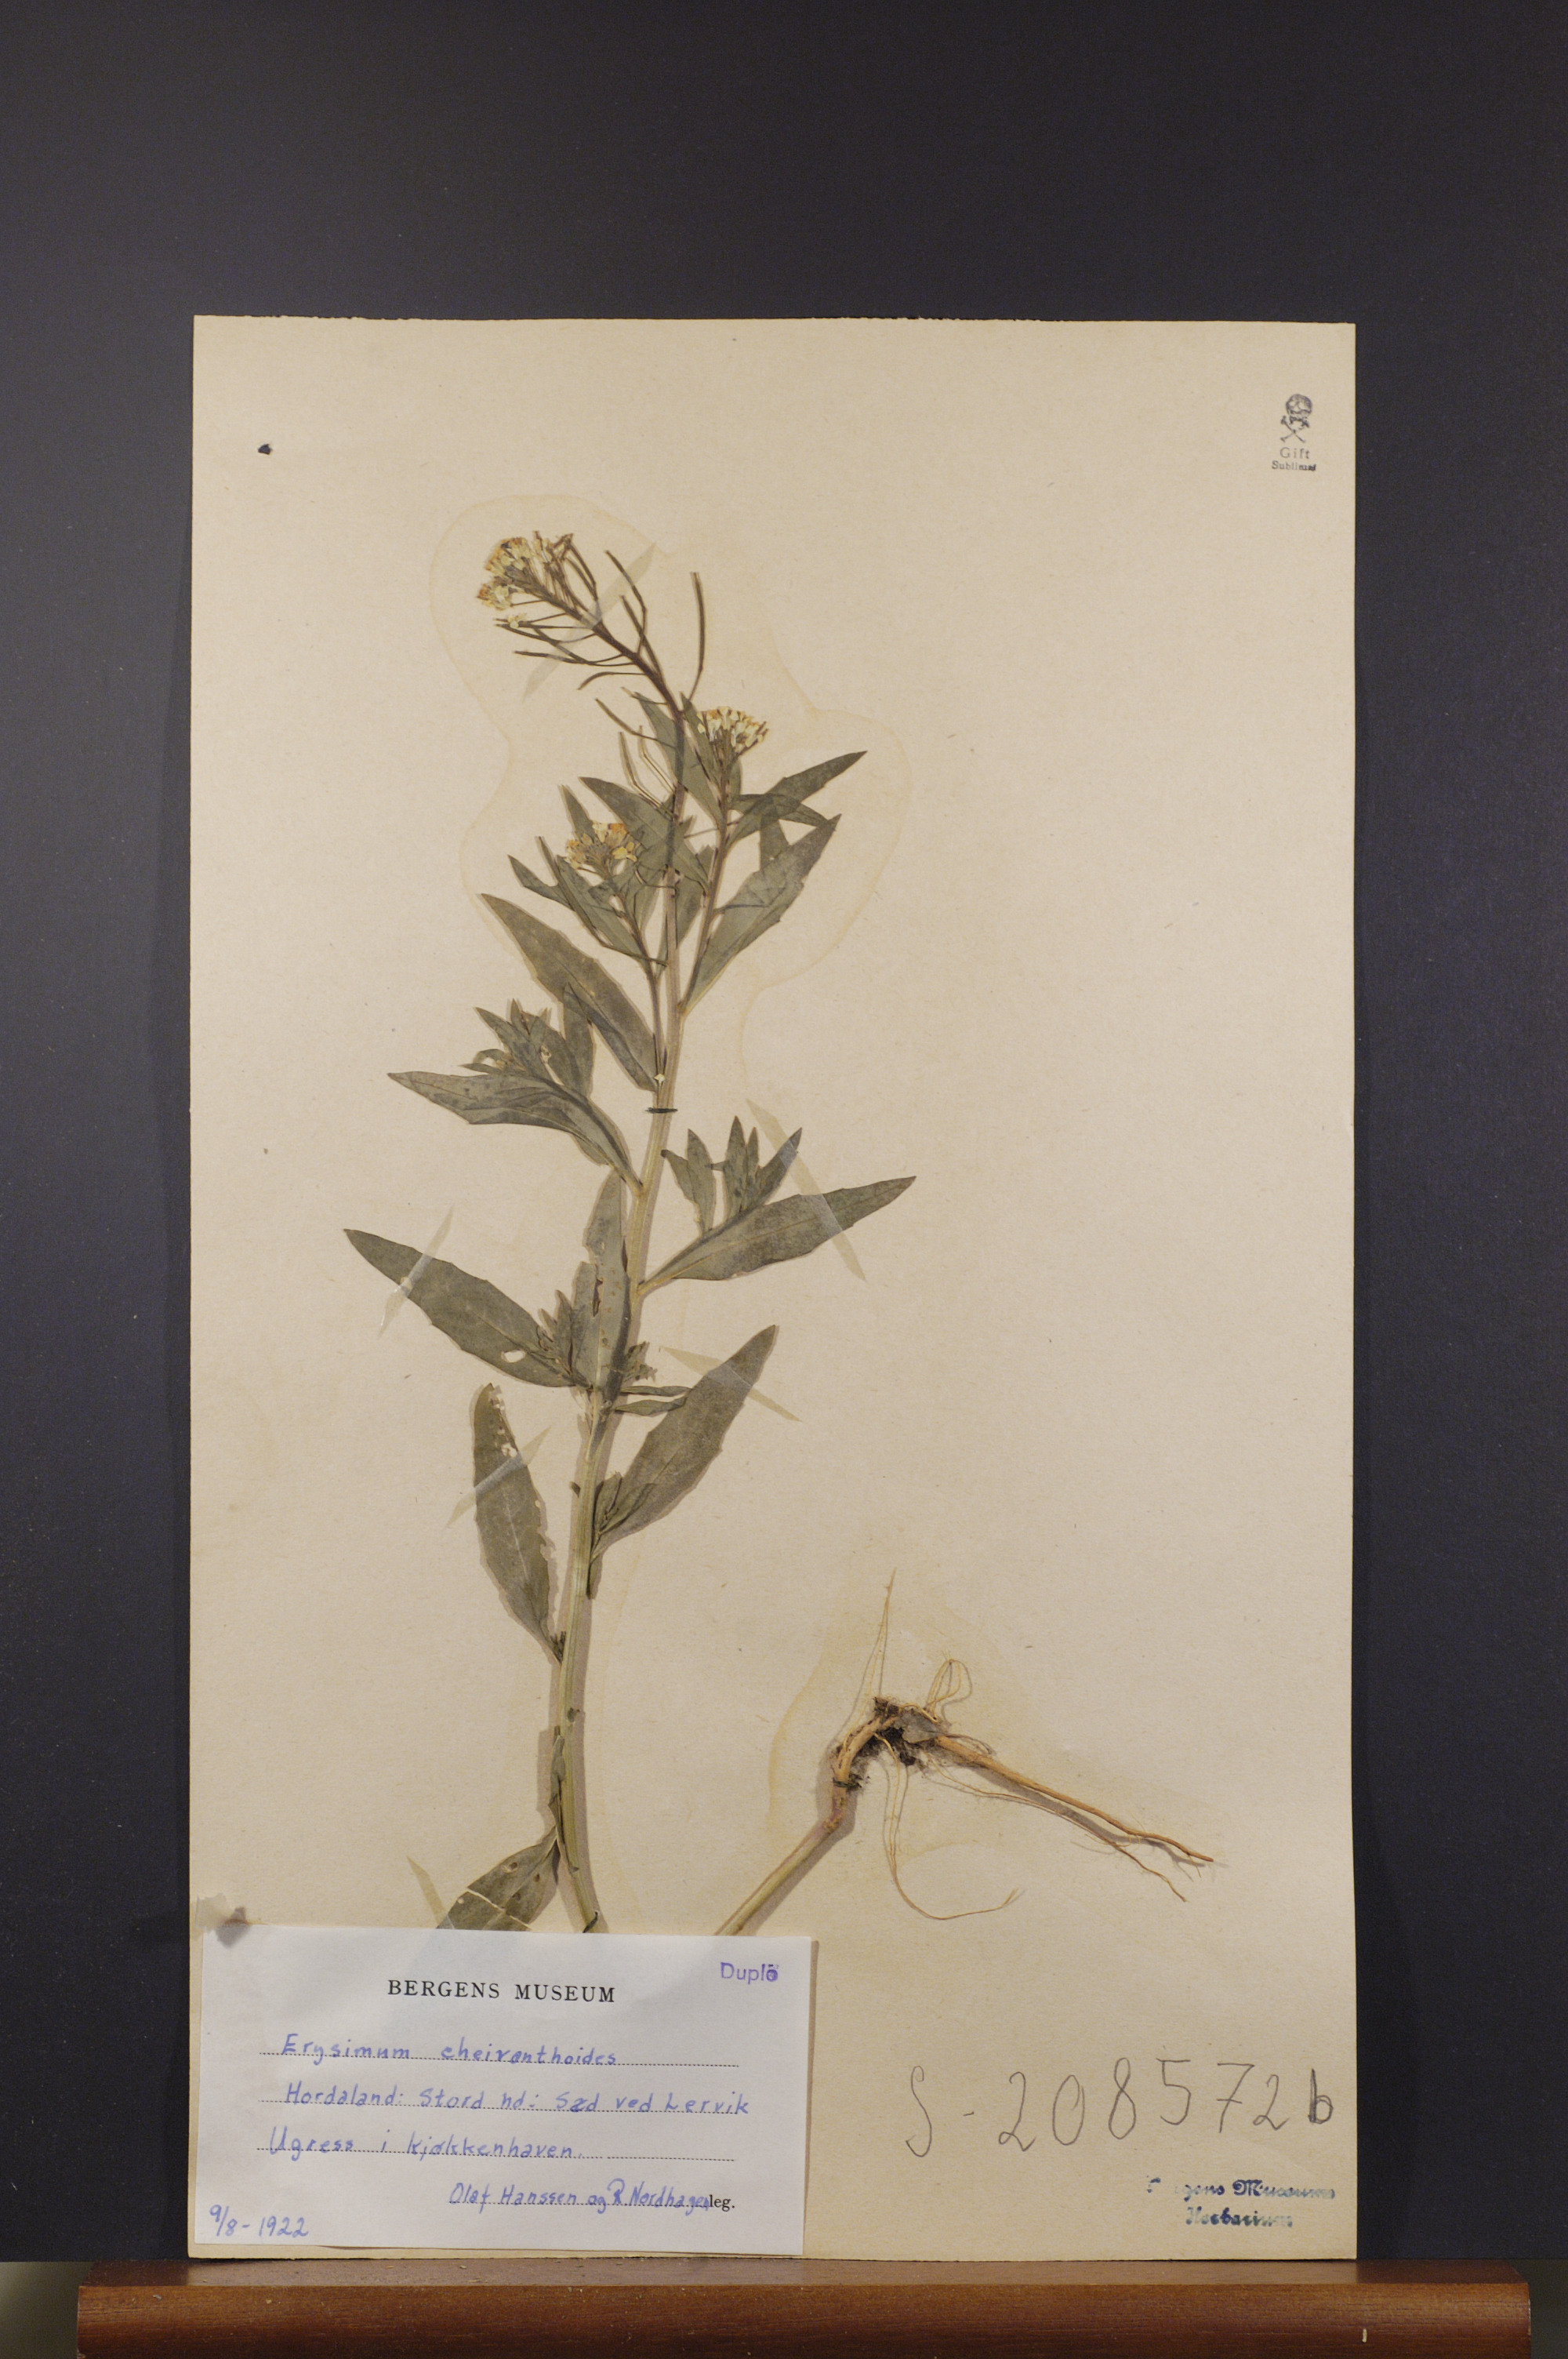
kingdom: Plantae
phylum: Tracheophyta
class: Magnoliopsida
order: Brassicales
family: Brassicaceae
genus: Erysimum
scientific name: Erysimum cheiranthoides
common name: Treacle mustard
